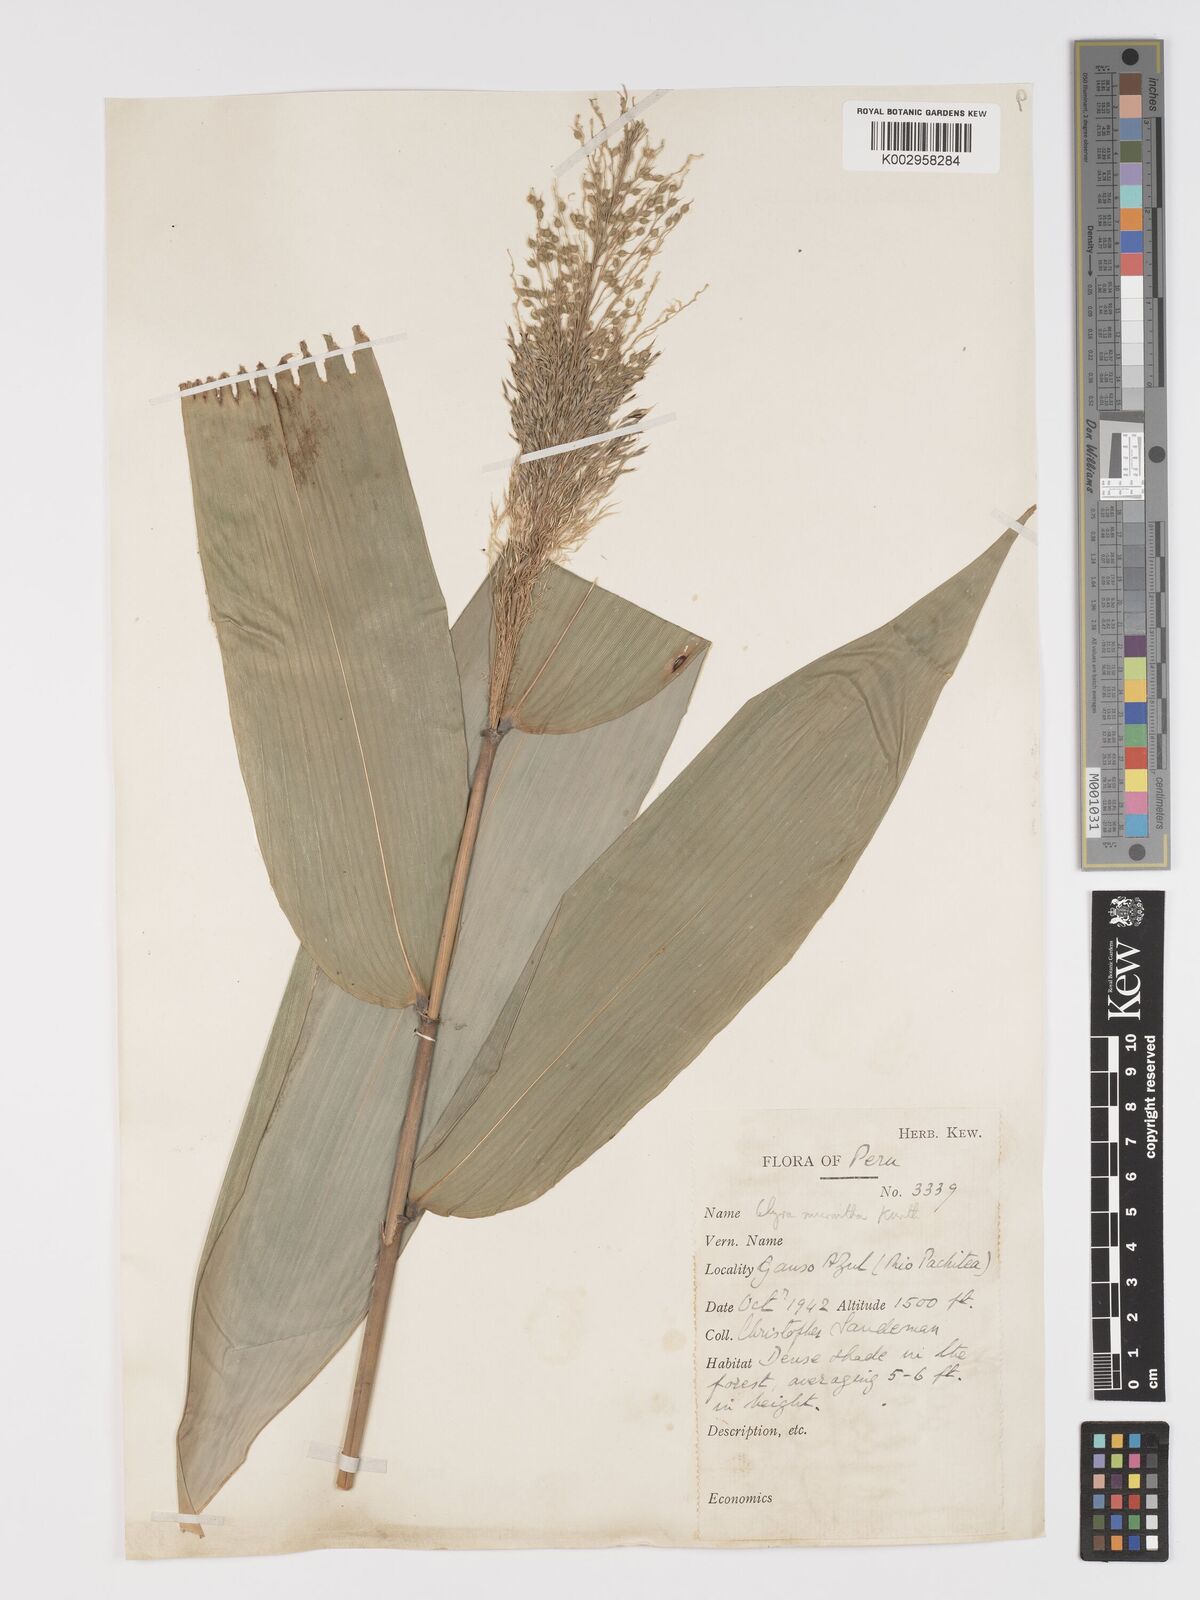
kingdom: Plantae
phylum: Tracheophyta
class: Liliopsida
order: Poales
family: Poaceae
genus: Taquara
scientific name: Taquara micrantha
